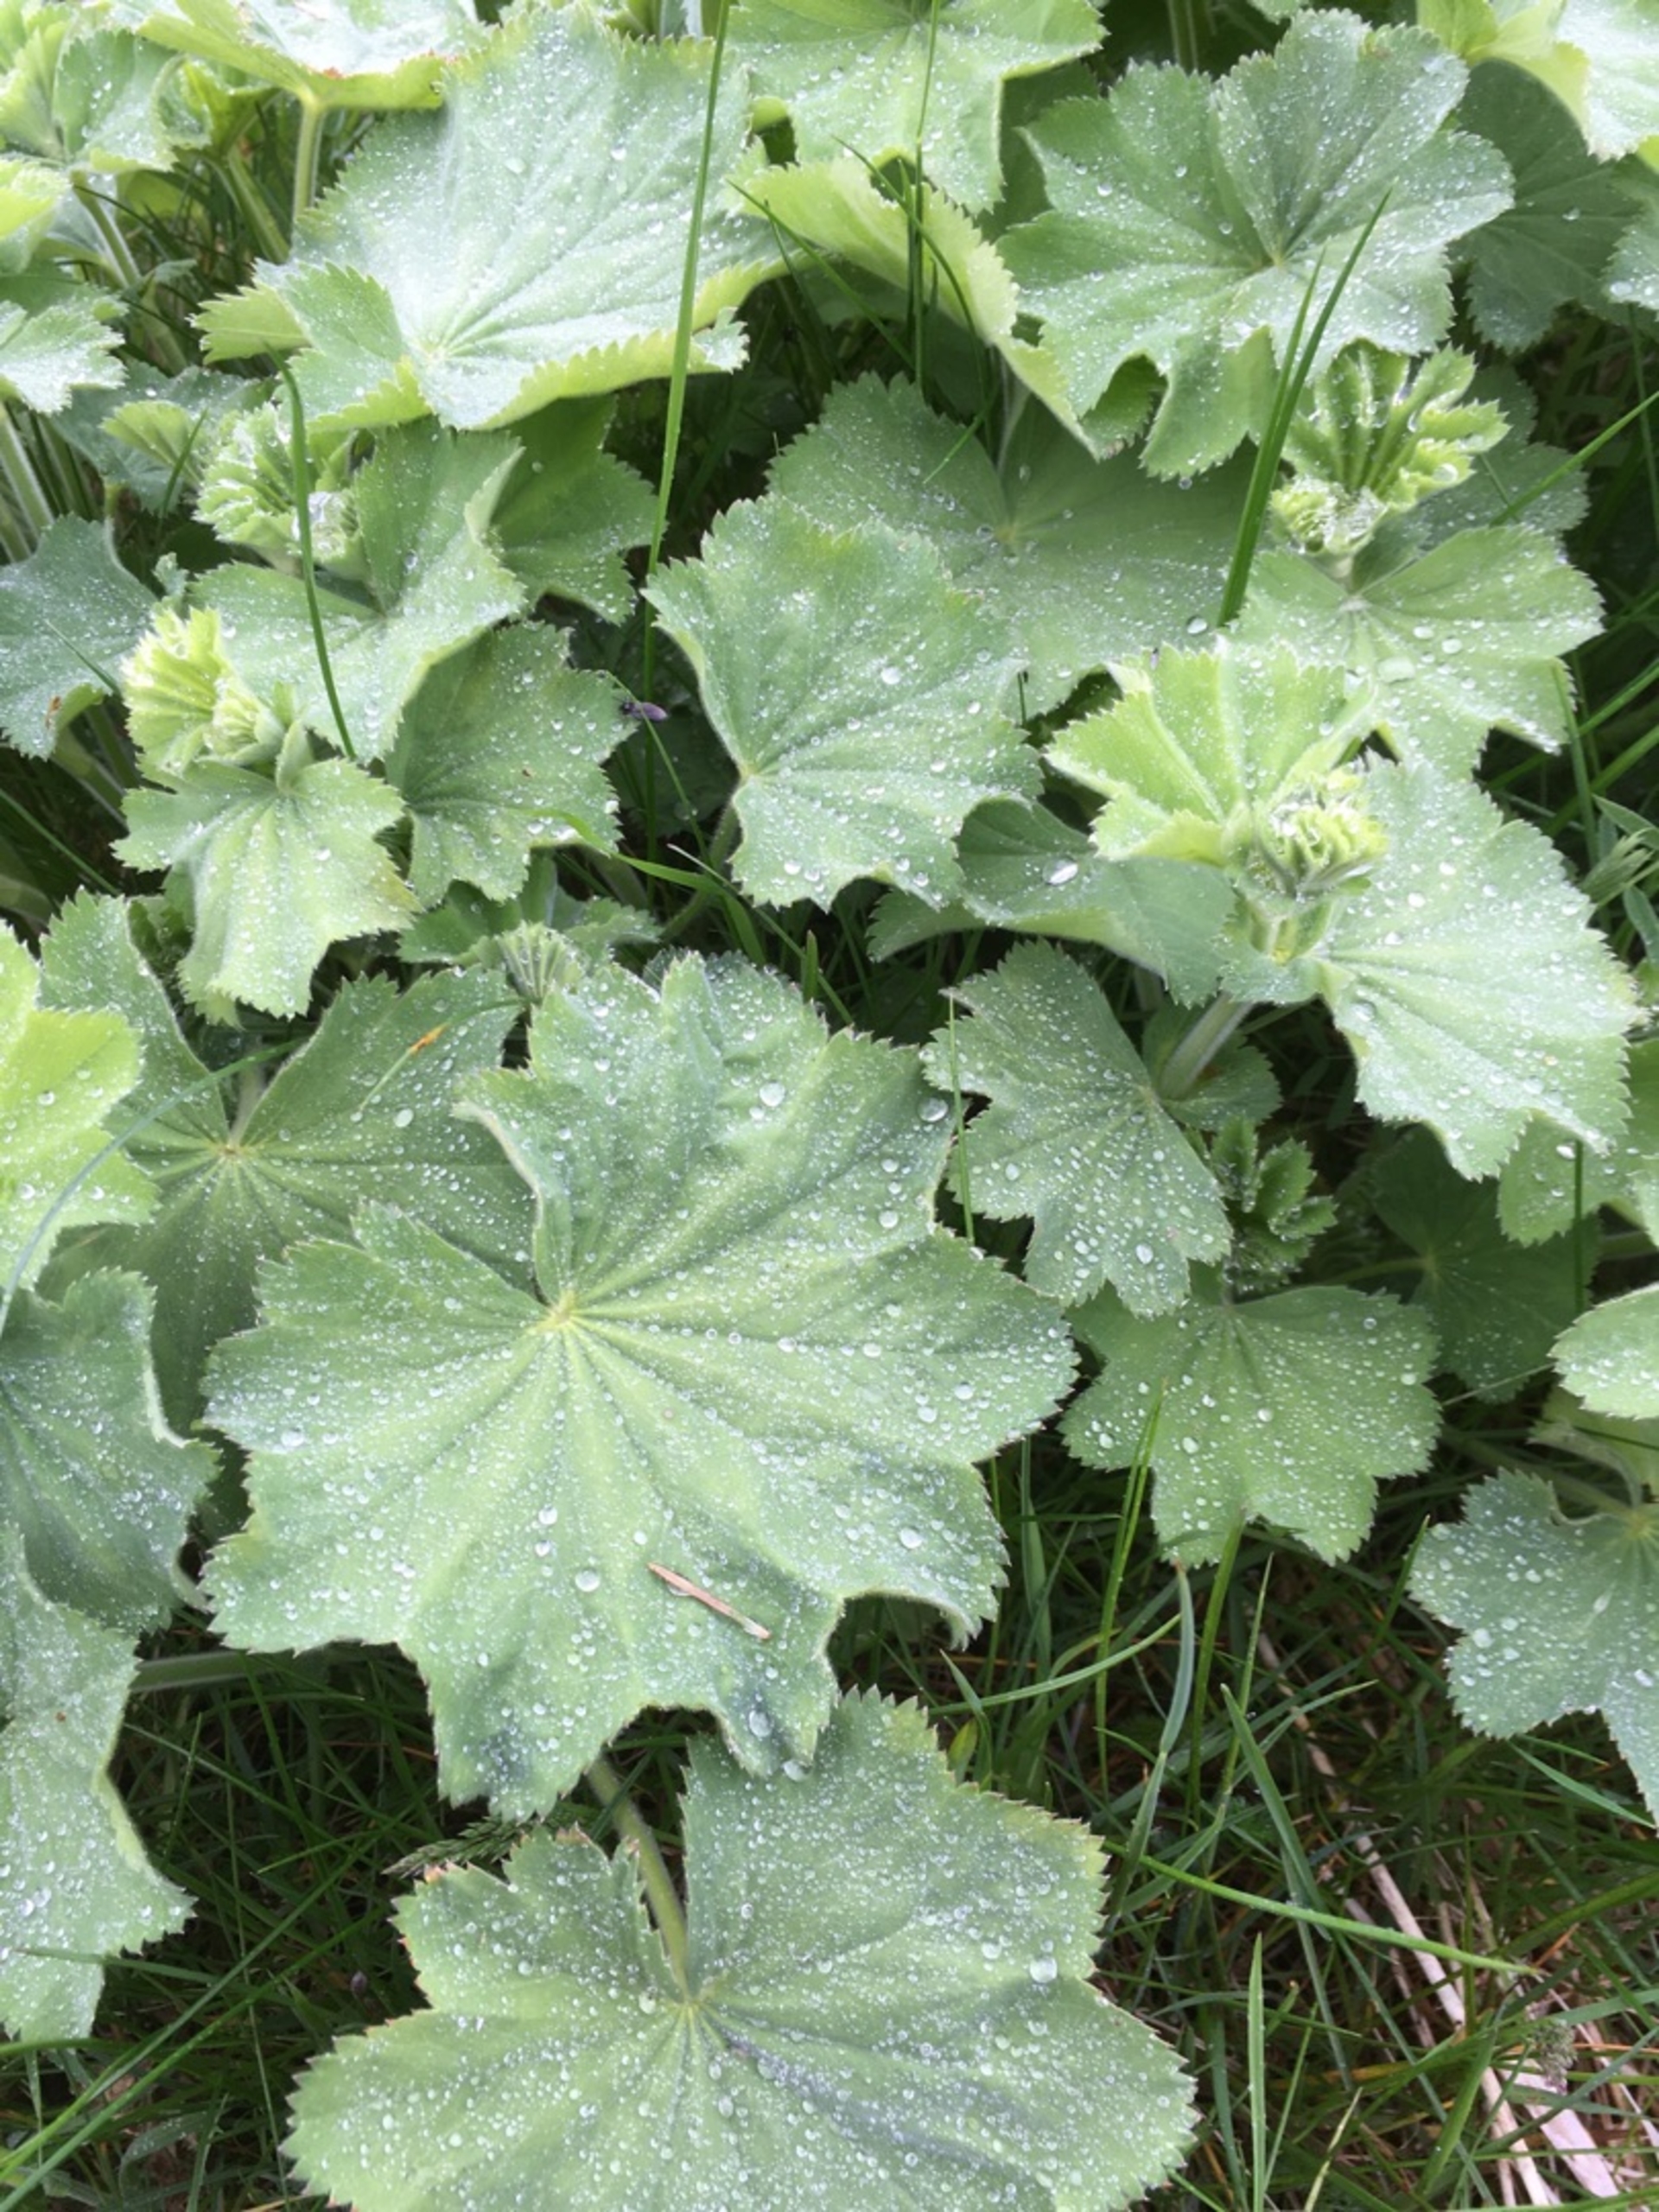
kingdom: Plantae
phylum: Tracheophyta
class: Magnoliopsida
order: Rosales
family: Rosaceae
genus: Alchemilla
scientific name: Alchemilla mollis
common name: Lådden løvefod
